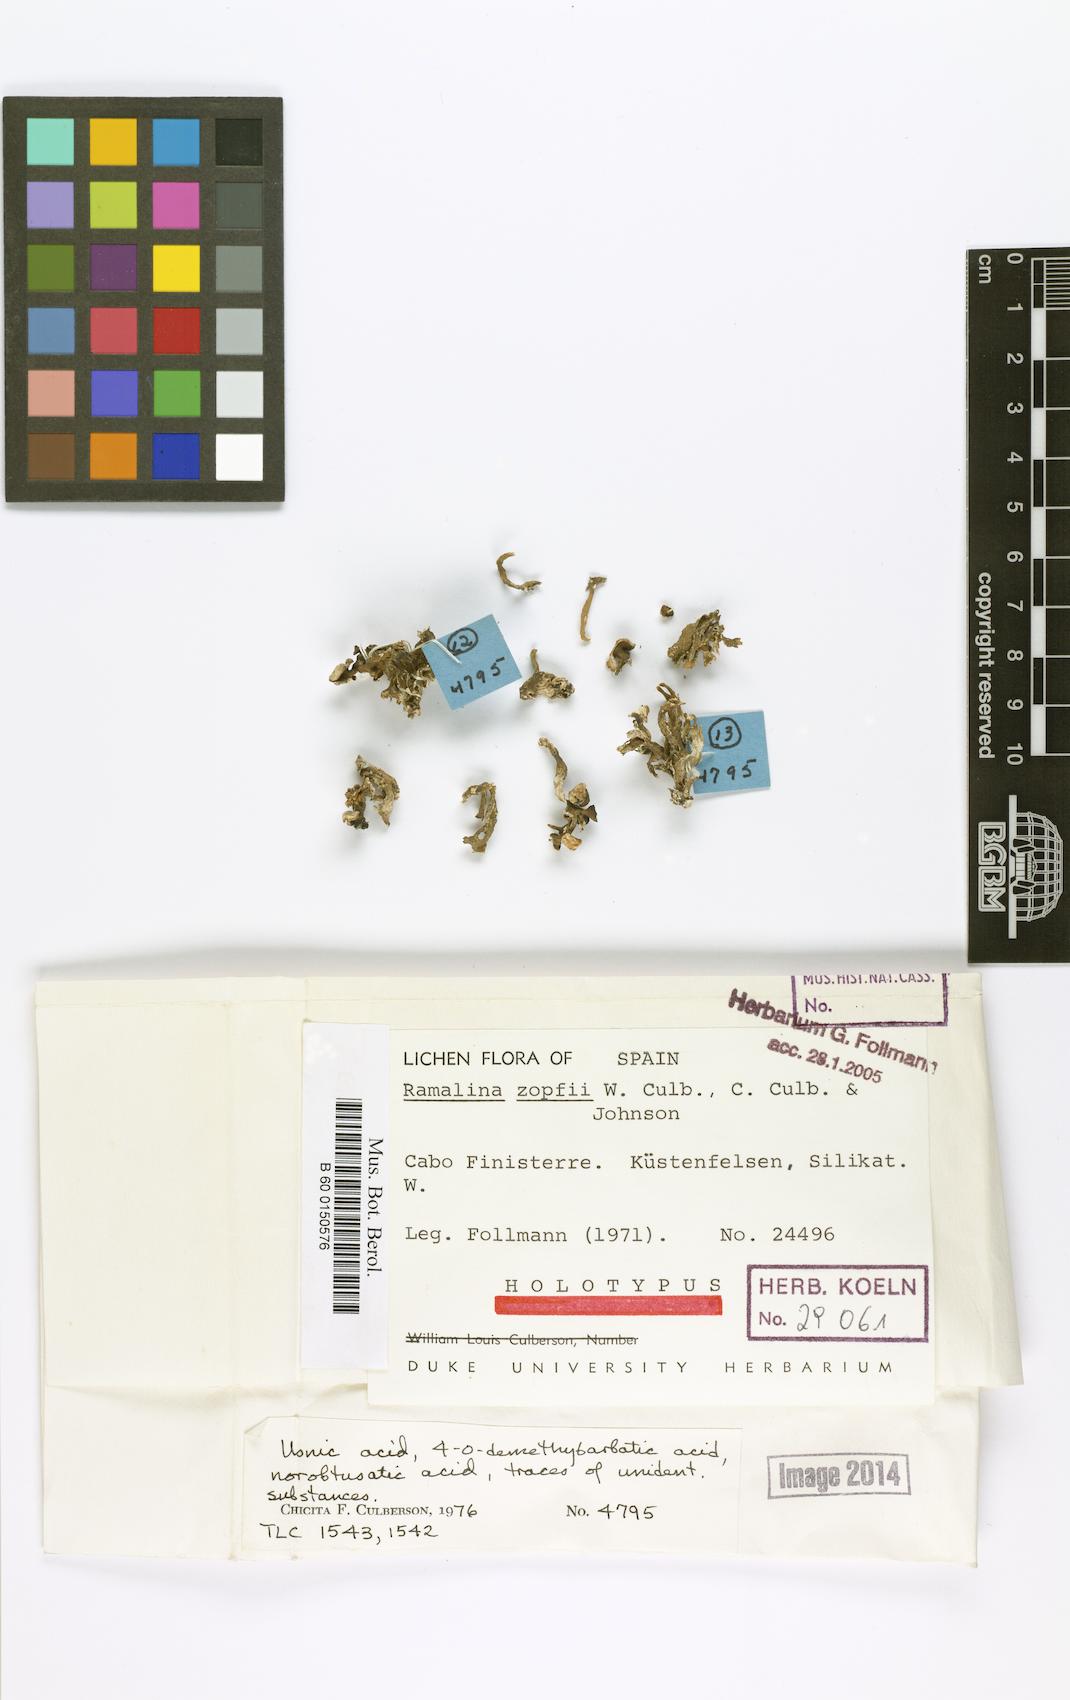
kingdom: Fungi
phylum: Ascomycota
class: Lecanoromycetes
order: Lecanorales
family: Ramalinaceae
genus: Ramalina
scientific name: Ramalina siliquosa
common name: Sea ivory
